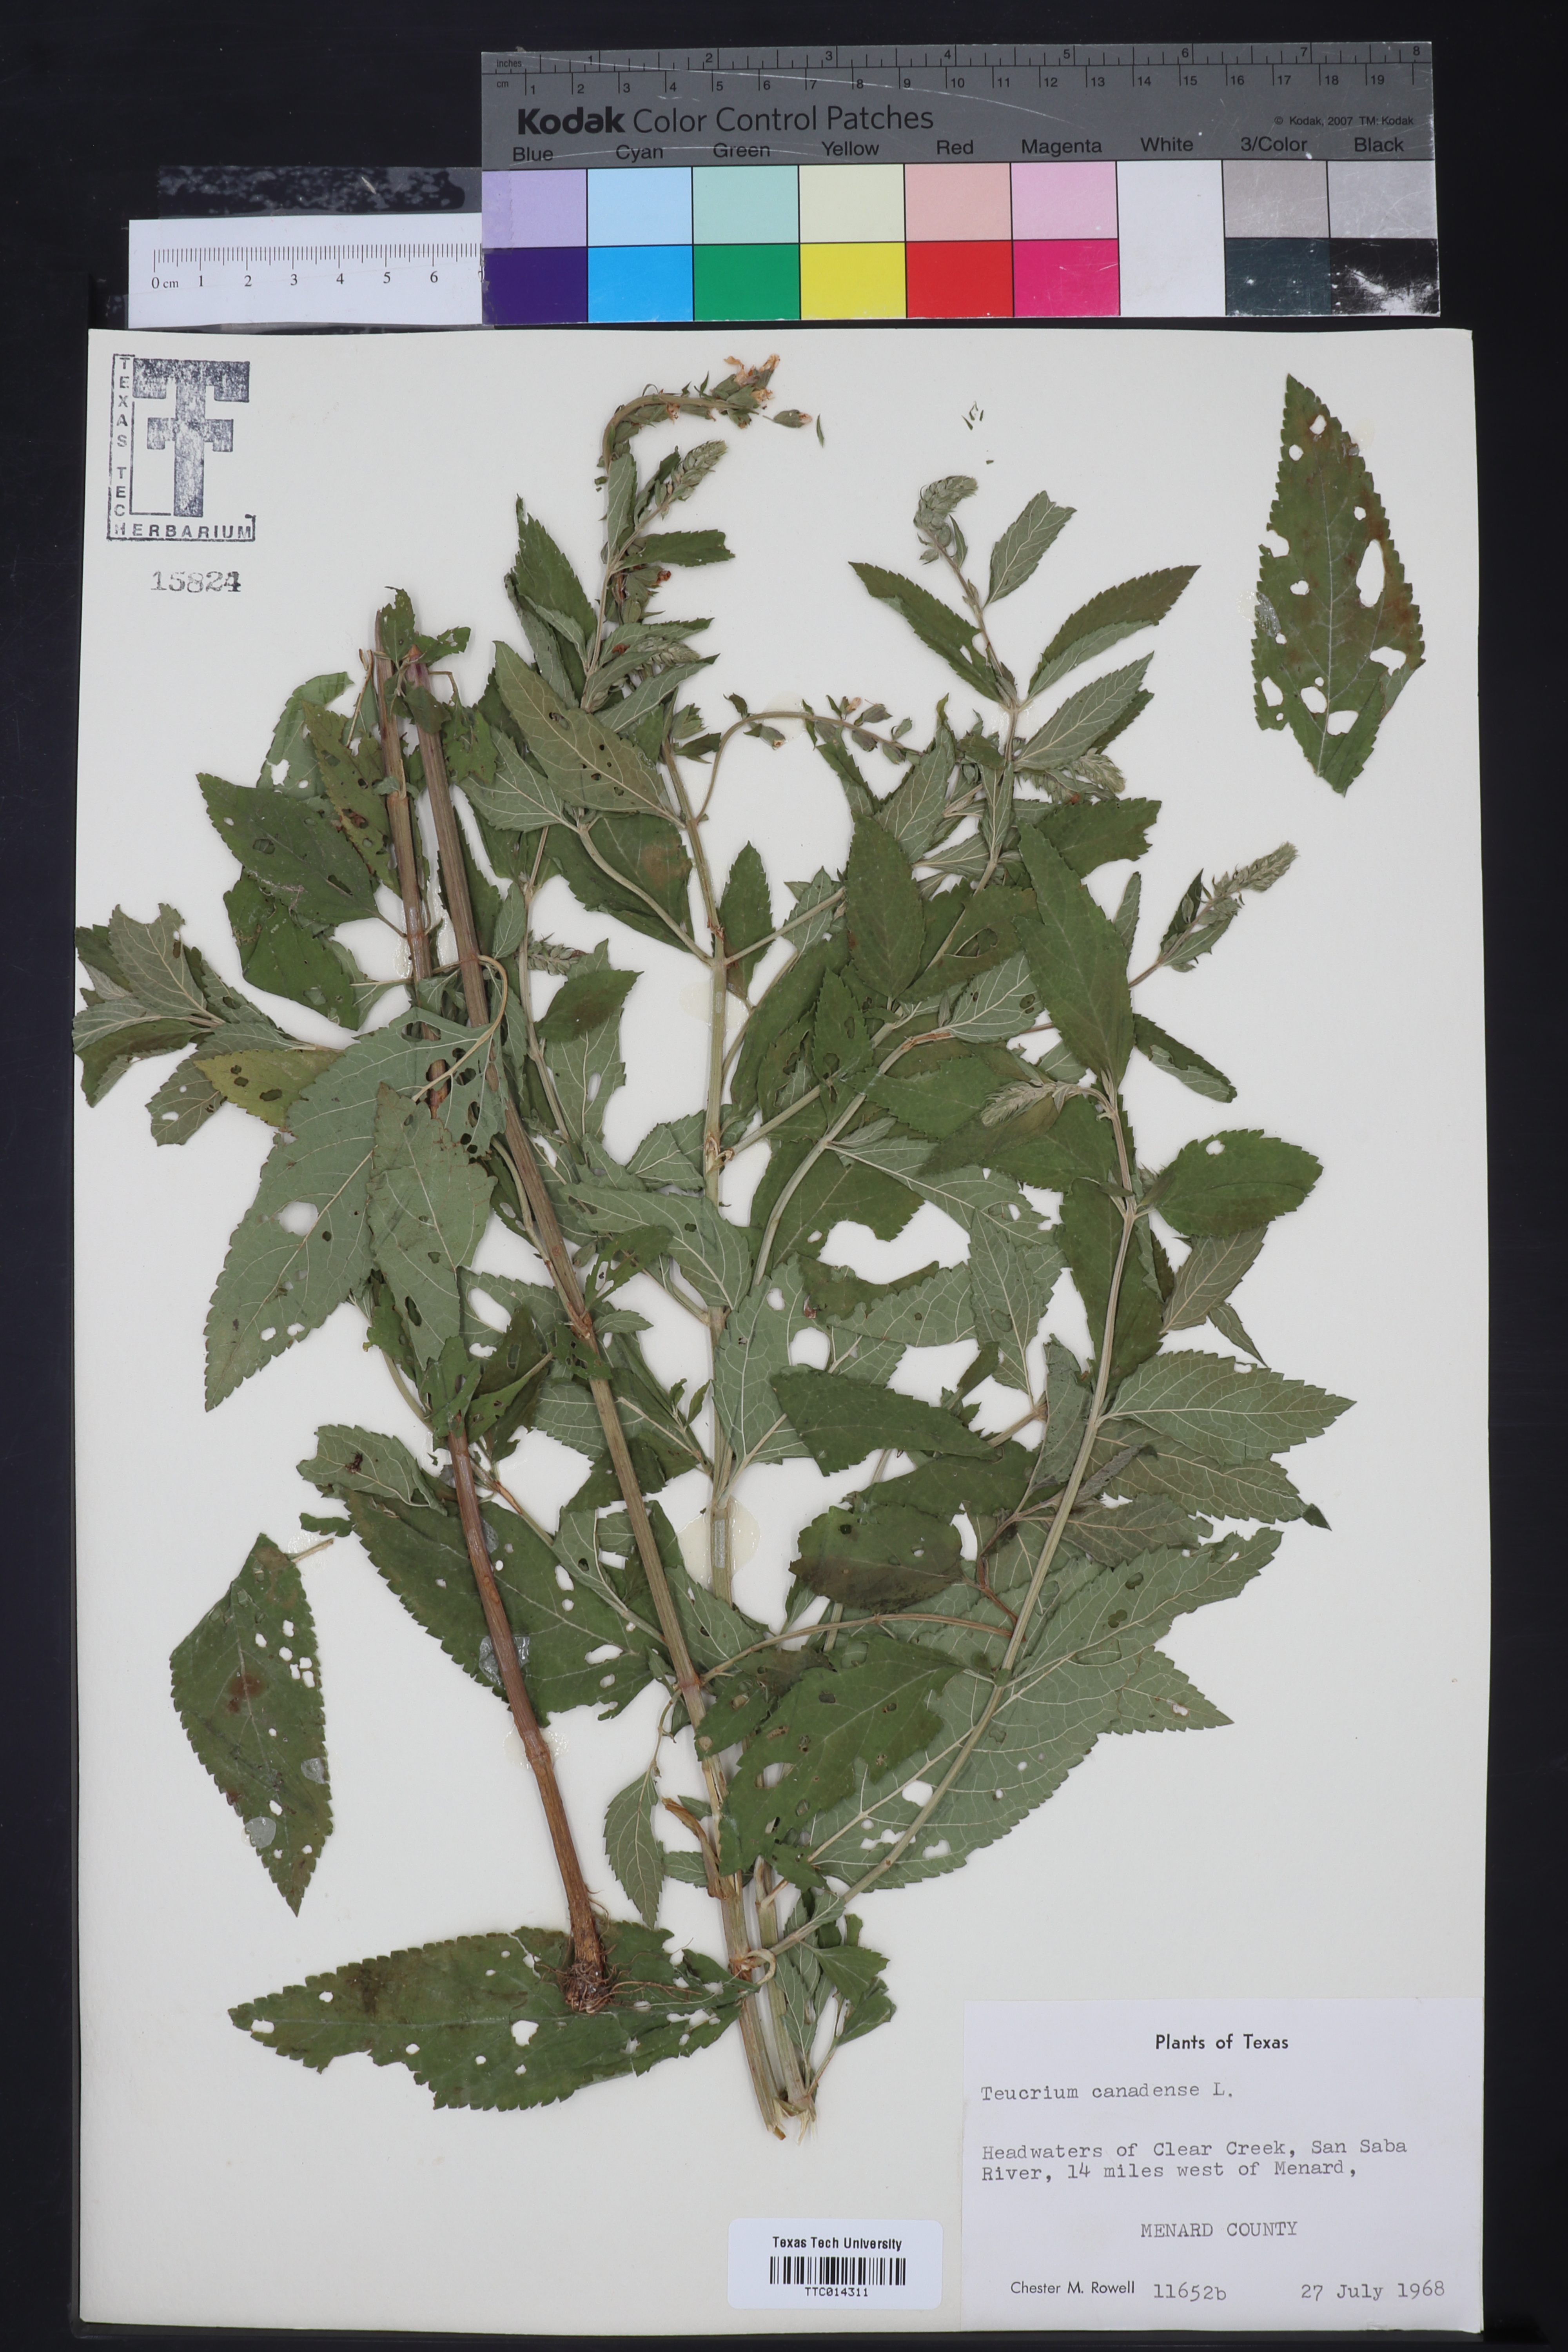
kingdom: Plantae
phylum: Tracheophyta
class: Magnoliopsida
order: Lamiales
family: Lamiaceae
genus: Teucrium
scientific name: Teucrium canadense
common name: American germander
